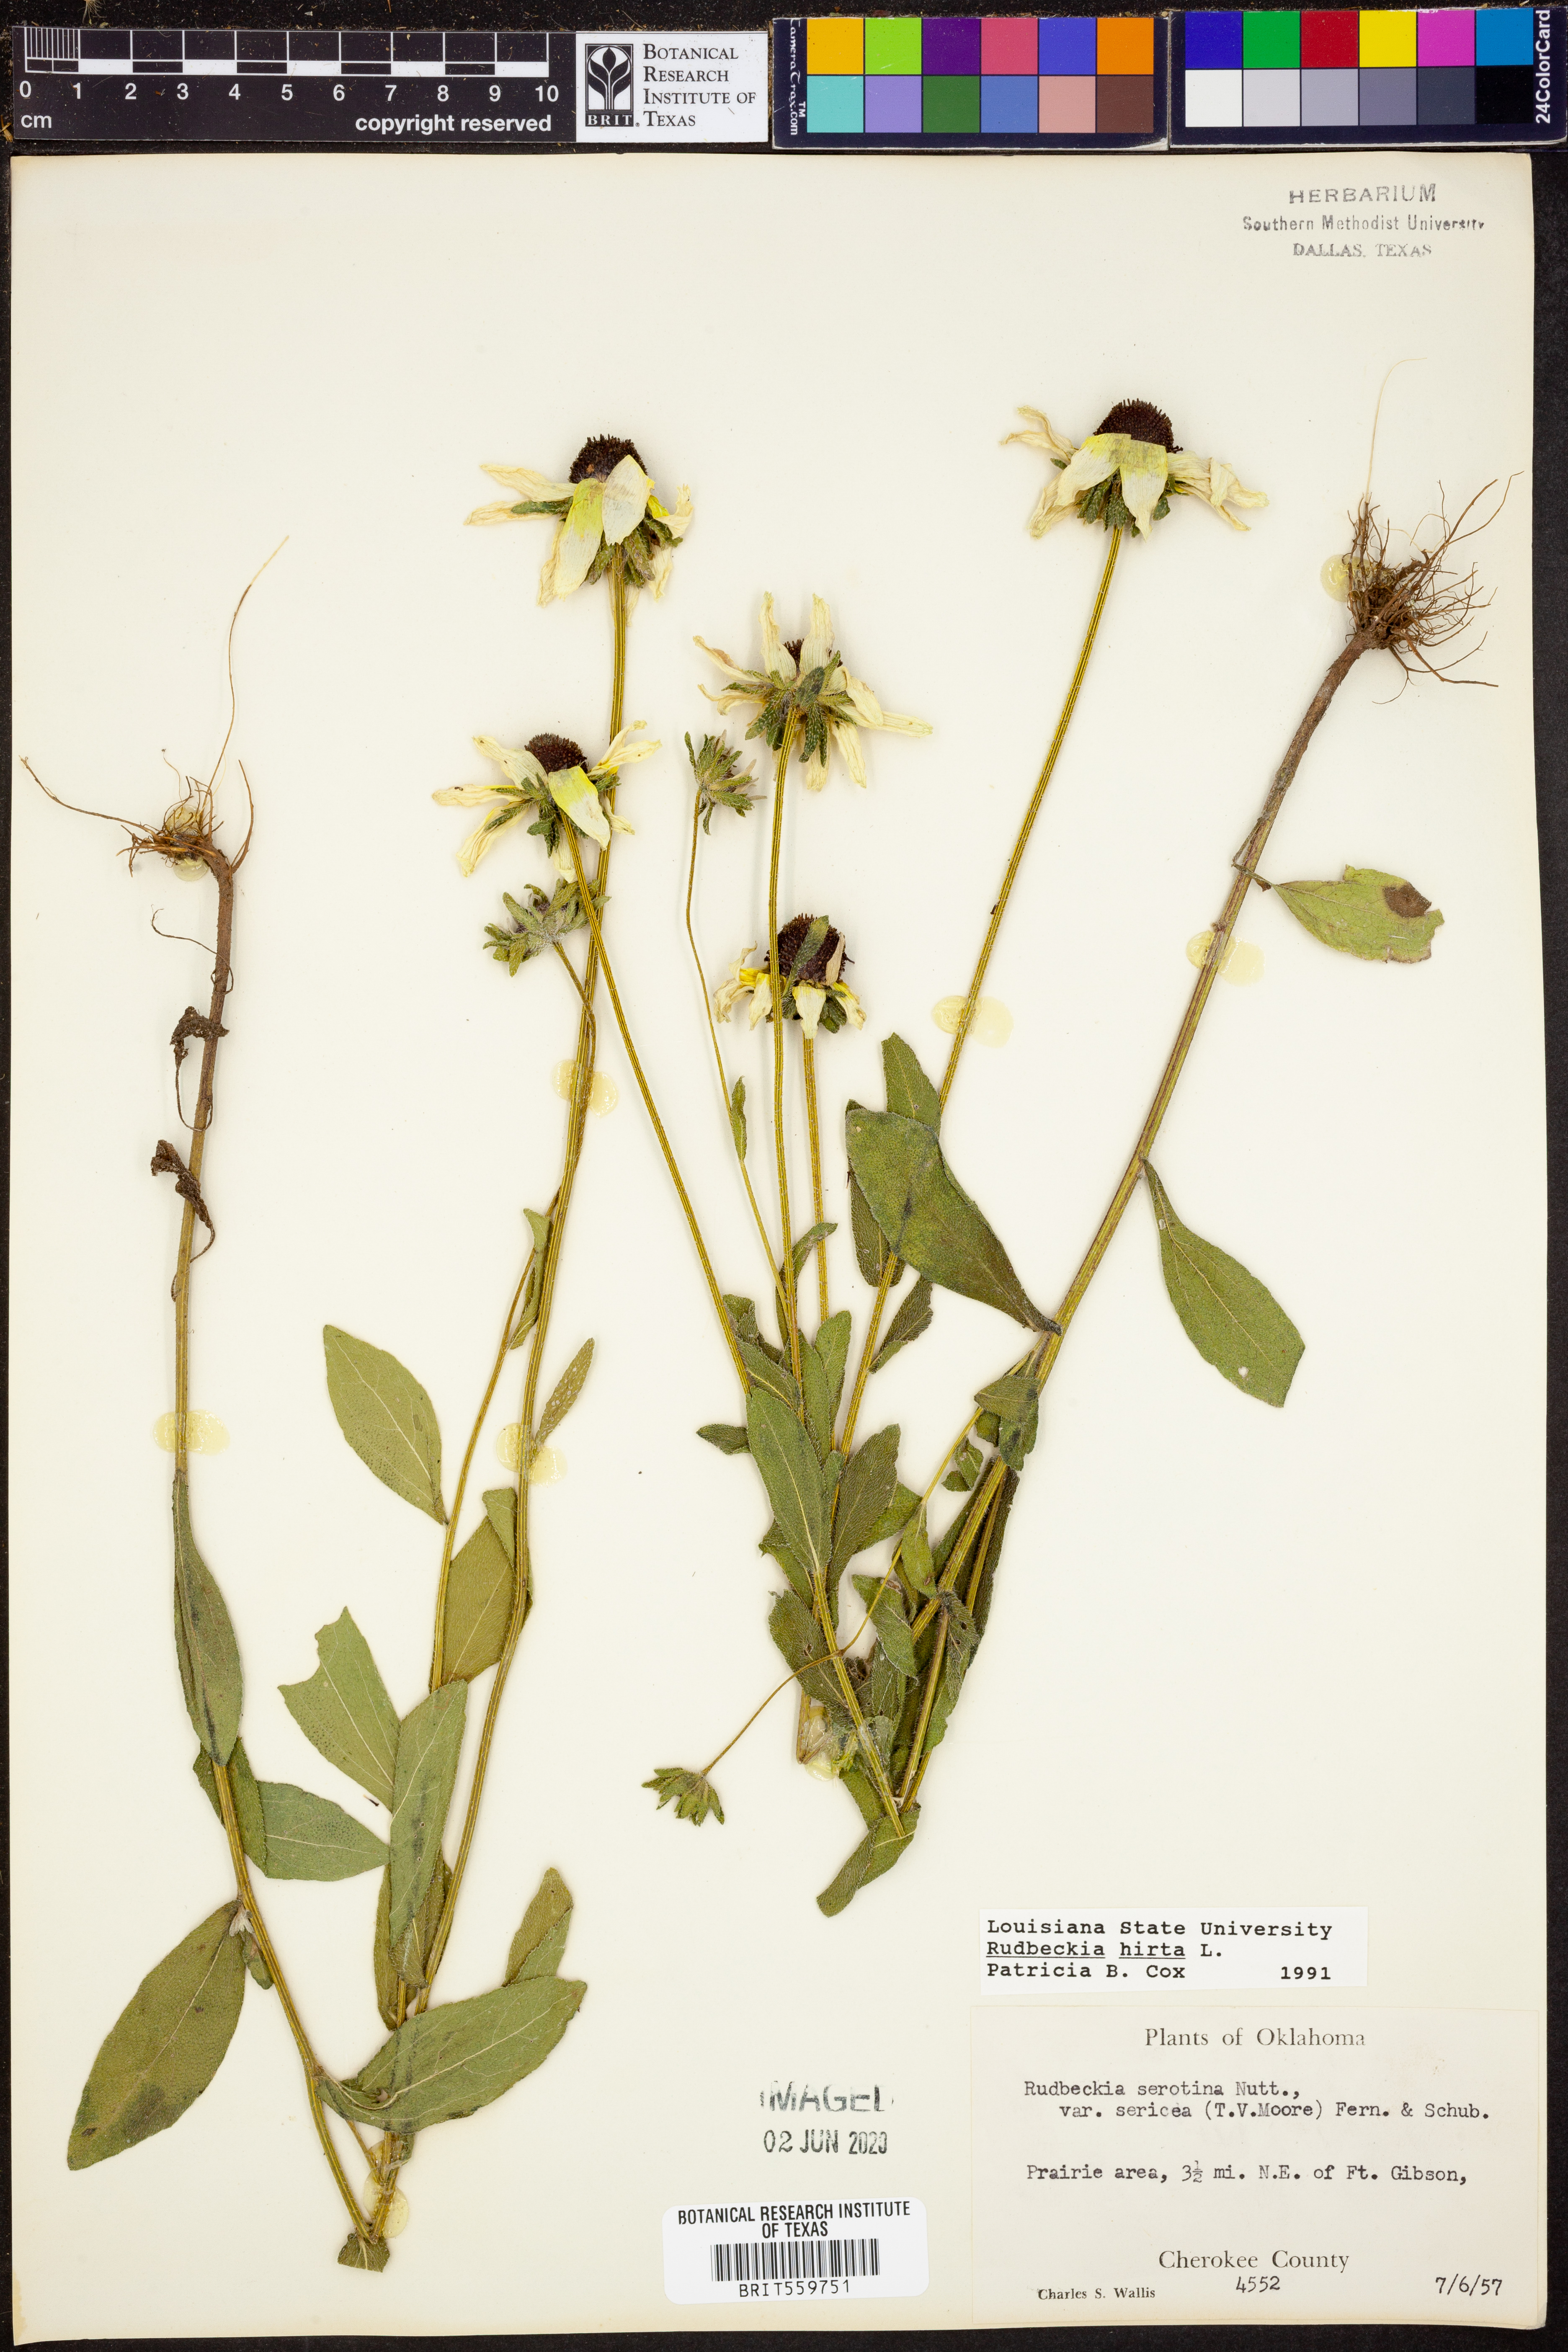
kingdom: Plantae
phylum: Tracheophyta
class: Magnoliopsida
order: Asterales
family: Asteraceae
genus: Rudbeckia
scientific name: Rudbeckia hirta
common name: Black-eyed-susan
